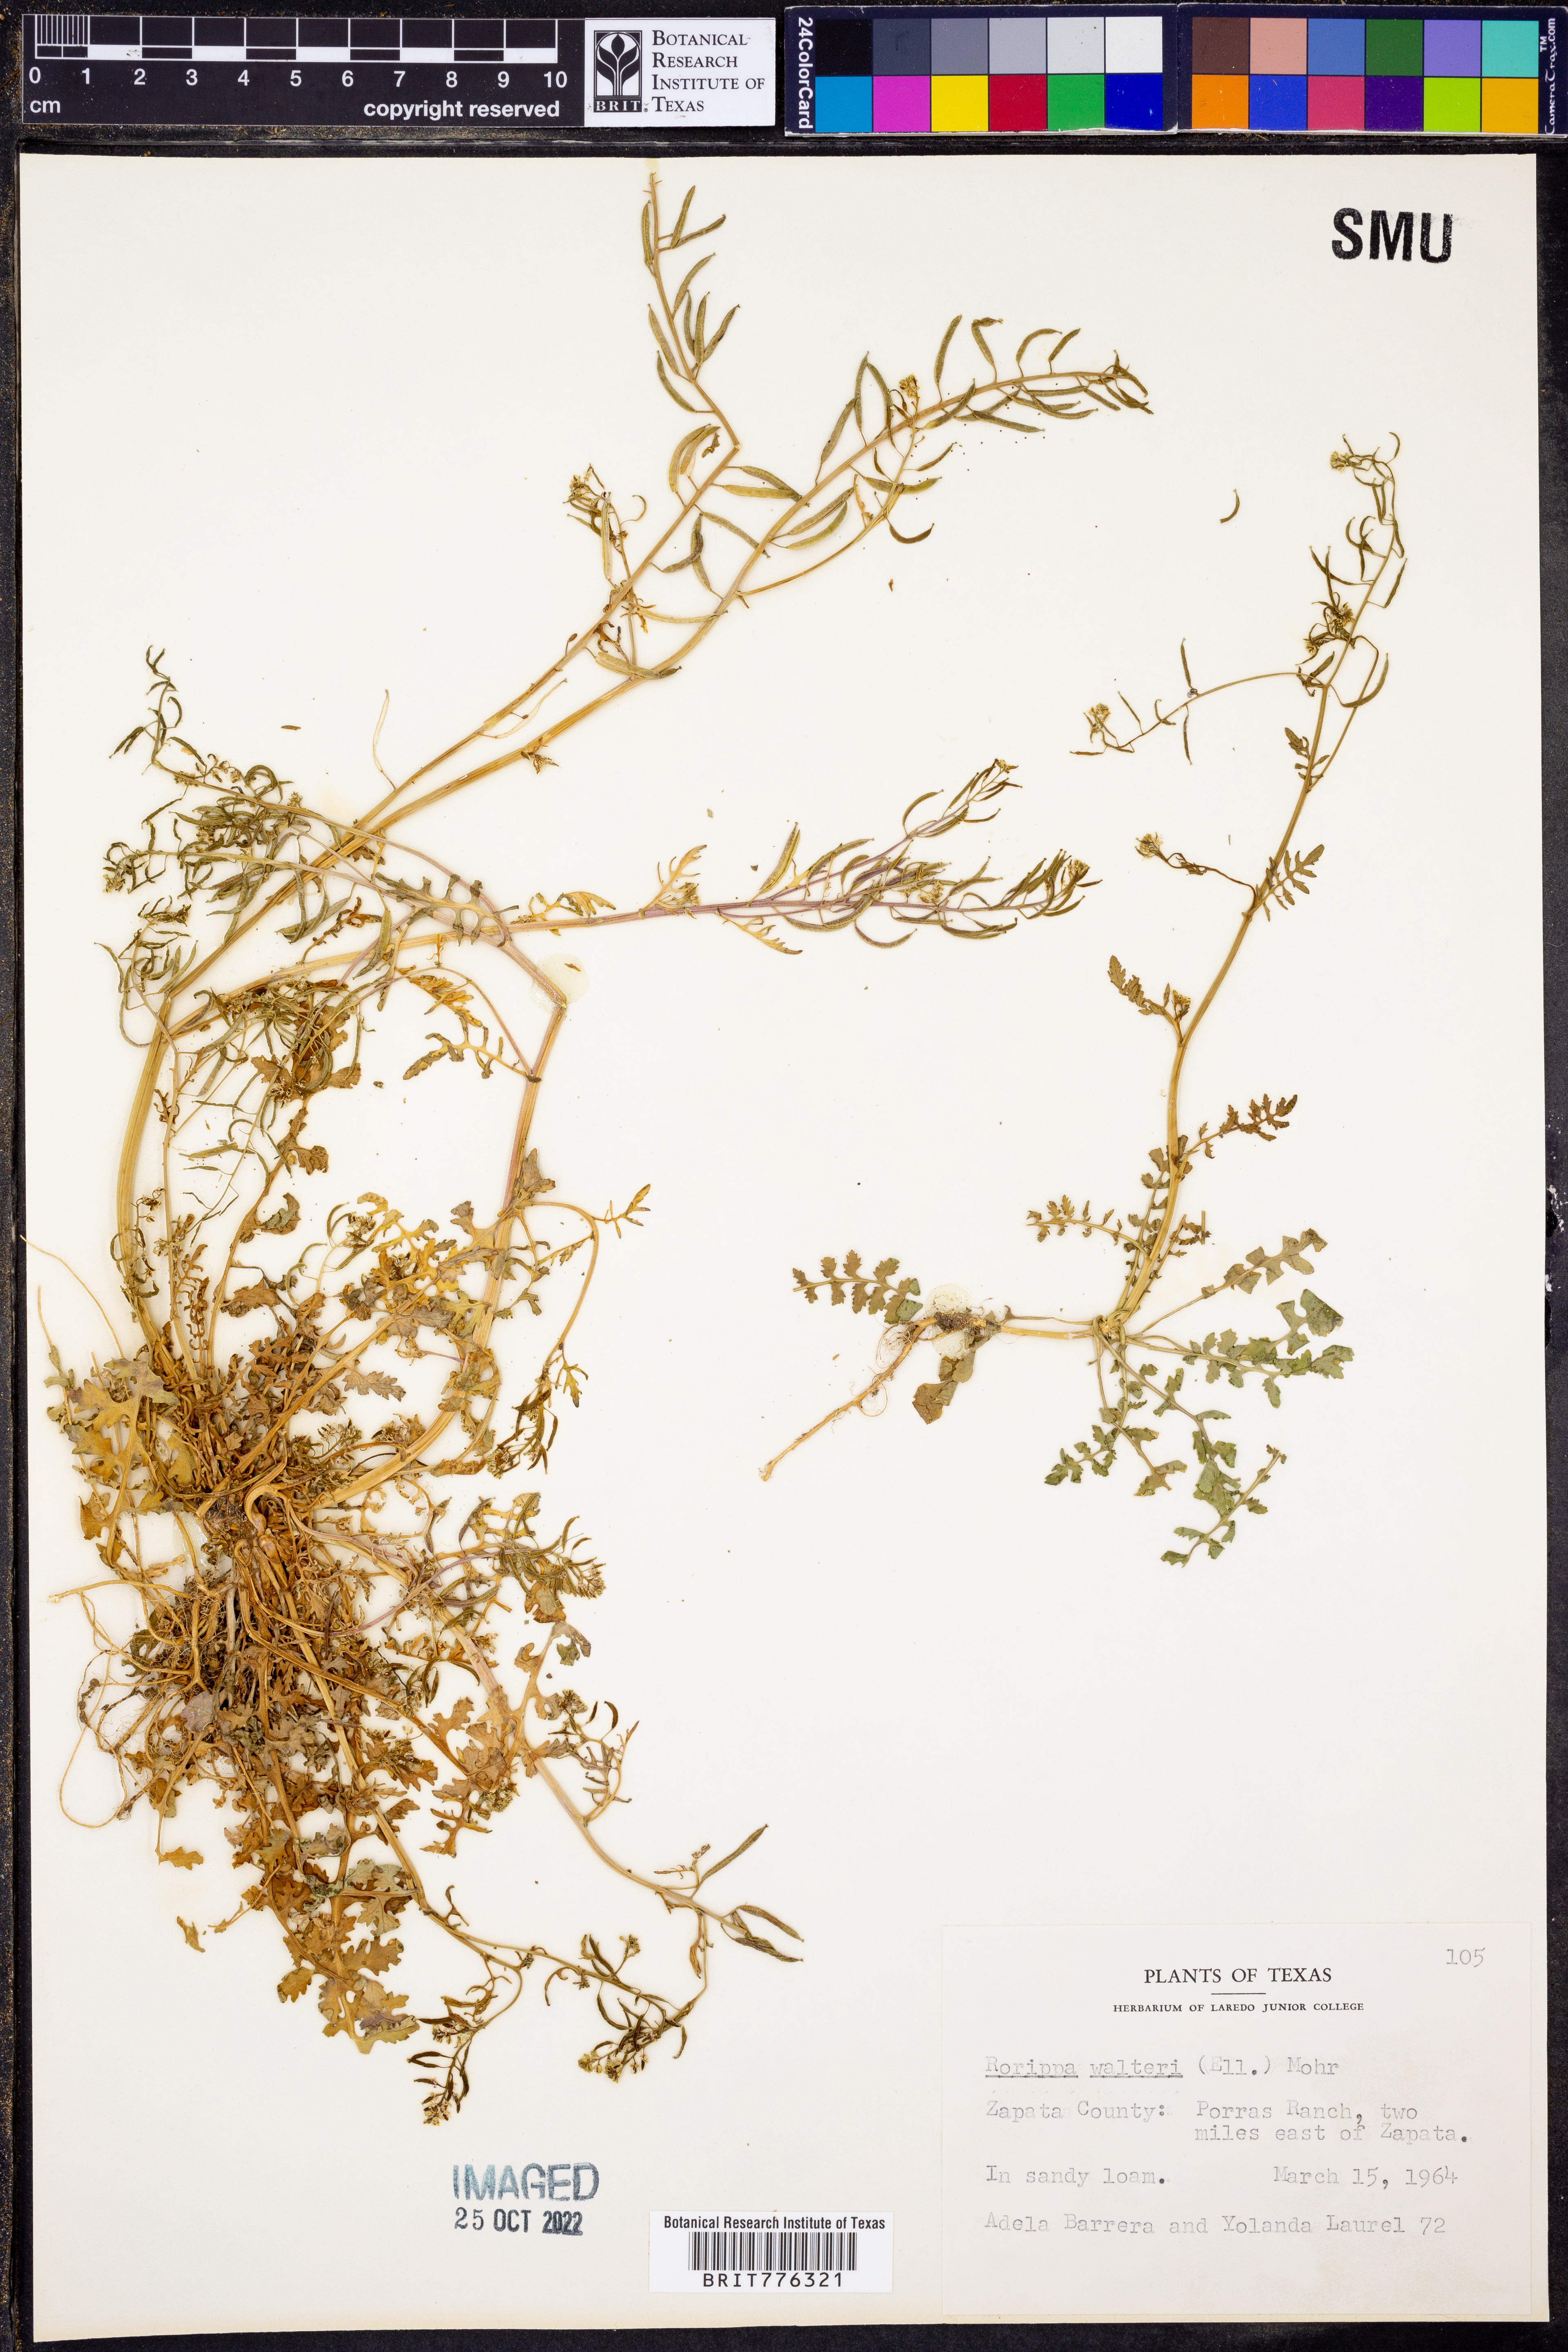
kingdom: Plantae
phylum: Tracheophyta
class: Magnoliopsida
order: Brassicales
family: Brassicaceae
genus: Rorippa
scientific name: Rorippa teres
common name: Southern marsh yellowcress
